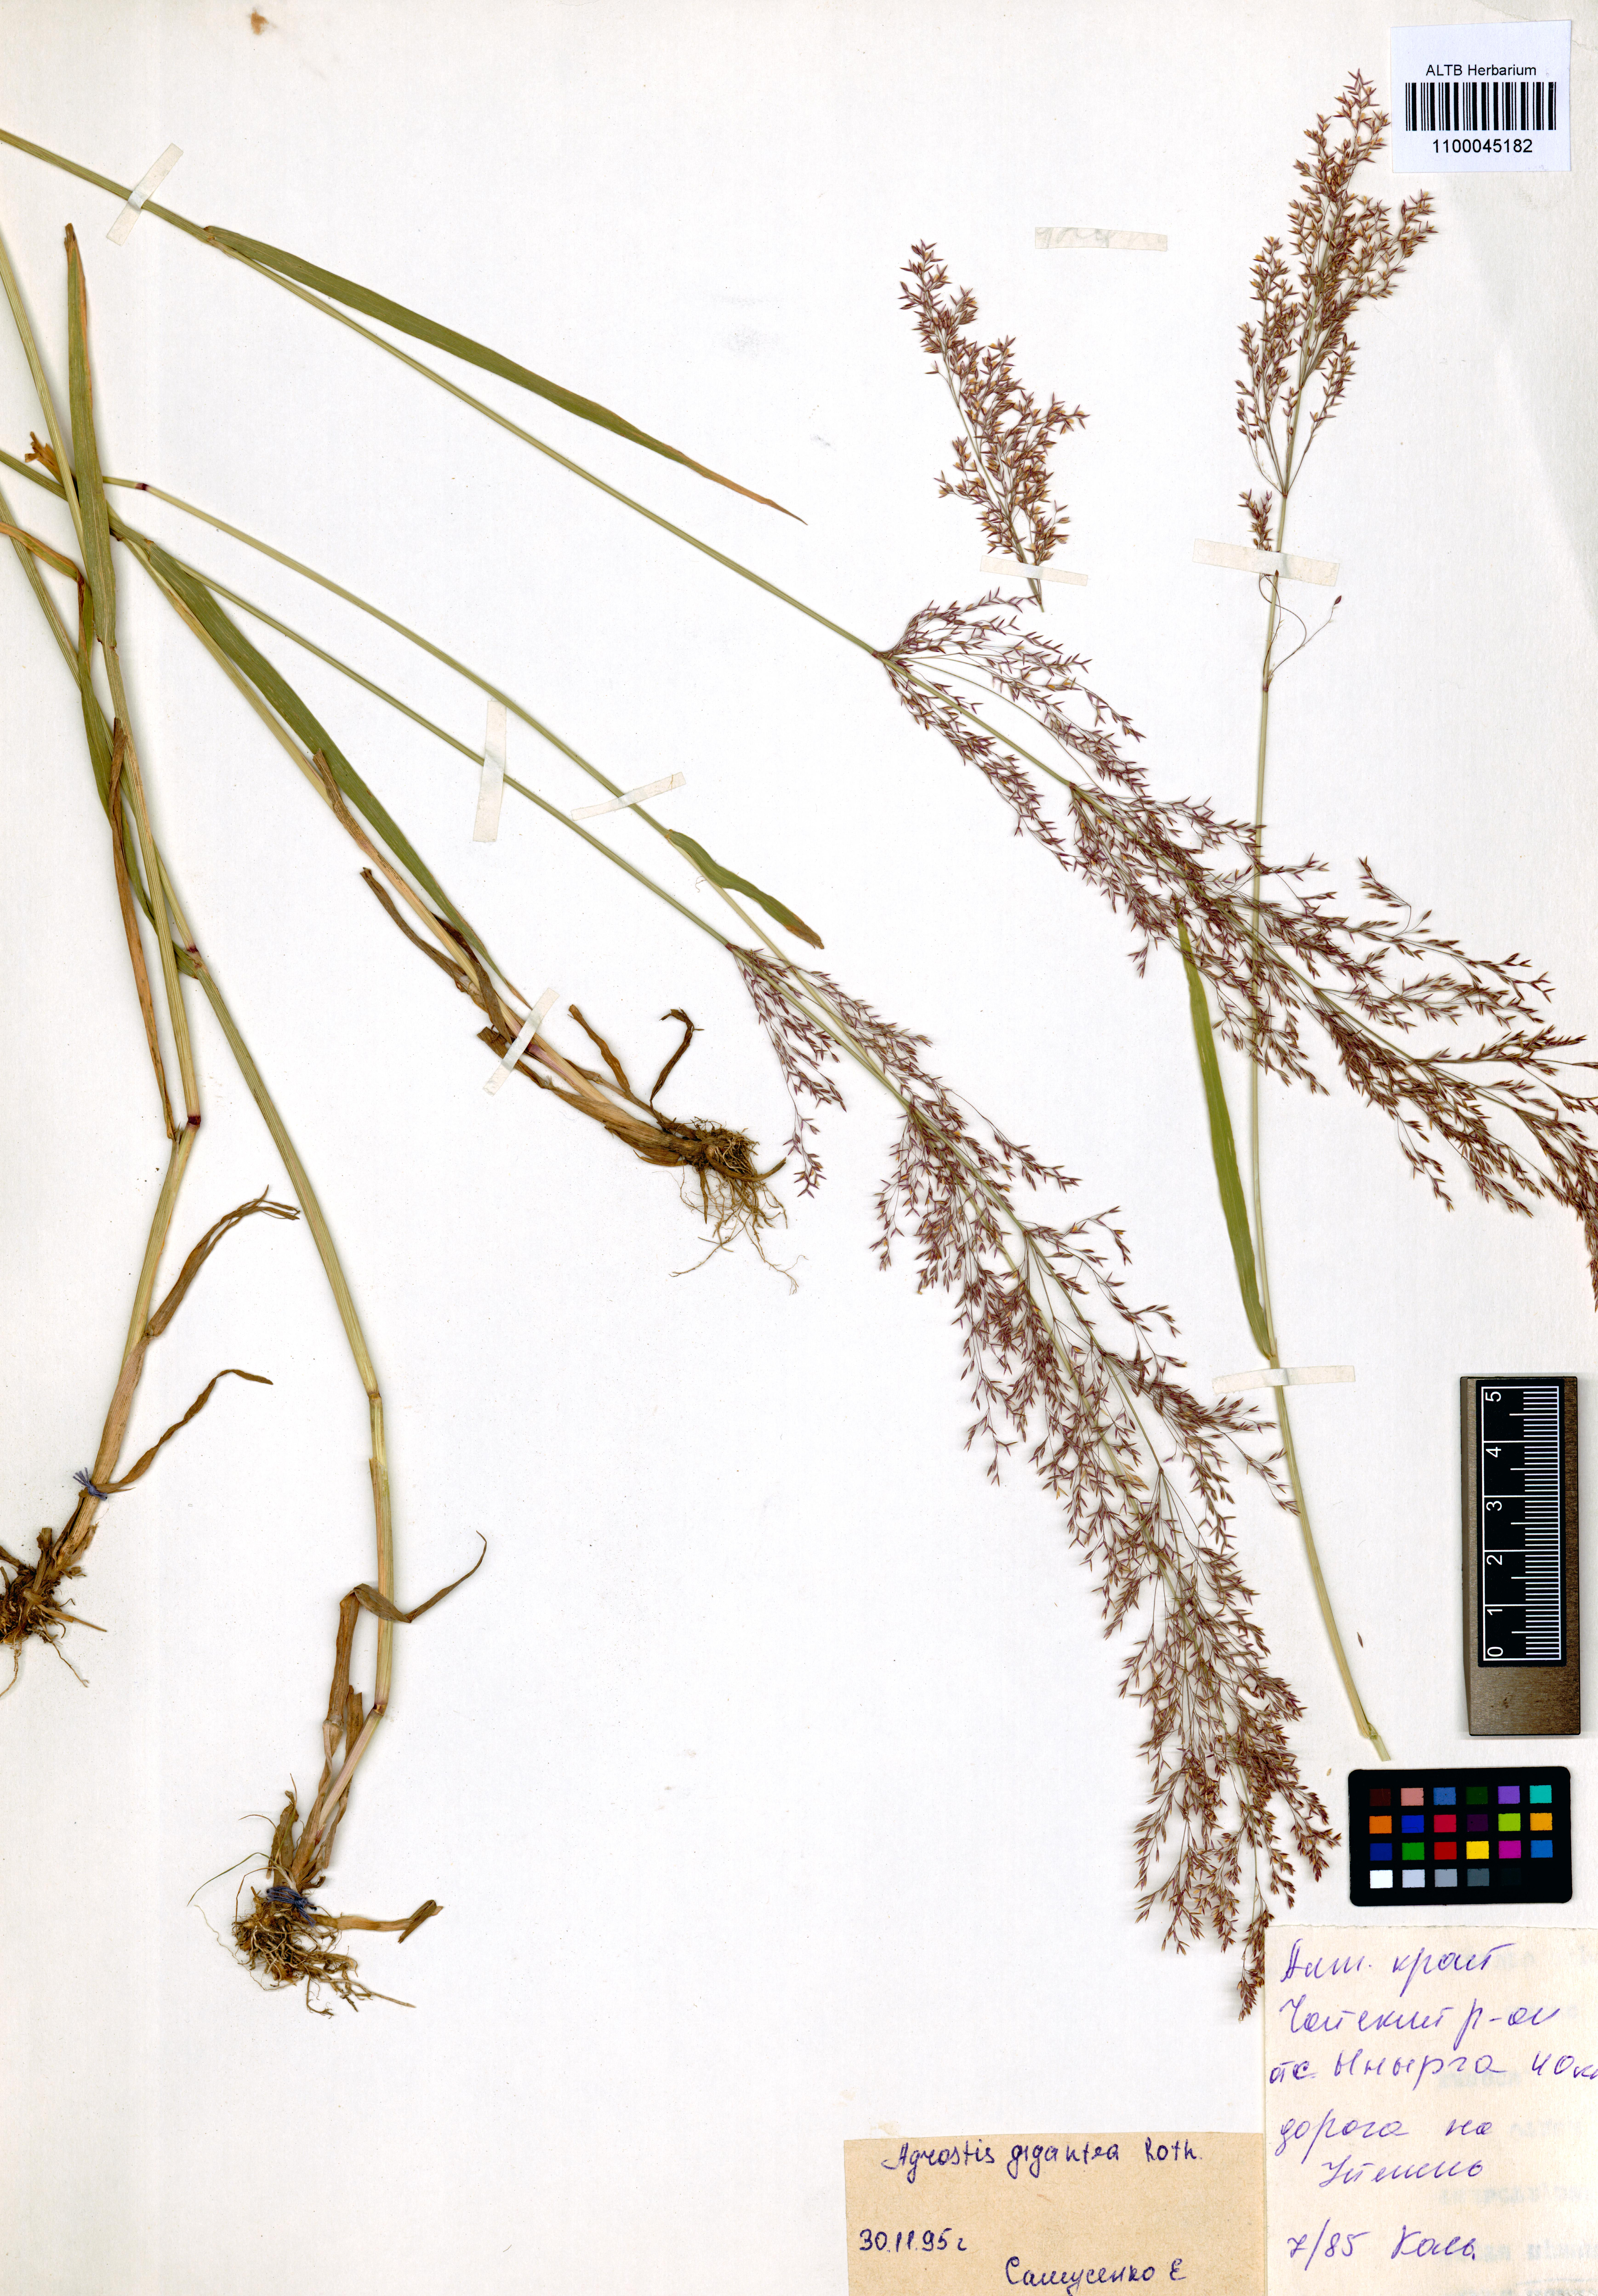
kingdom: Plantae
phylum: Tracheophyta
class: Liliopsida
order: Poales
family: Poaceae
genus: Agrostis
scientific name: Agrostis gigantea
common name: Black bent
